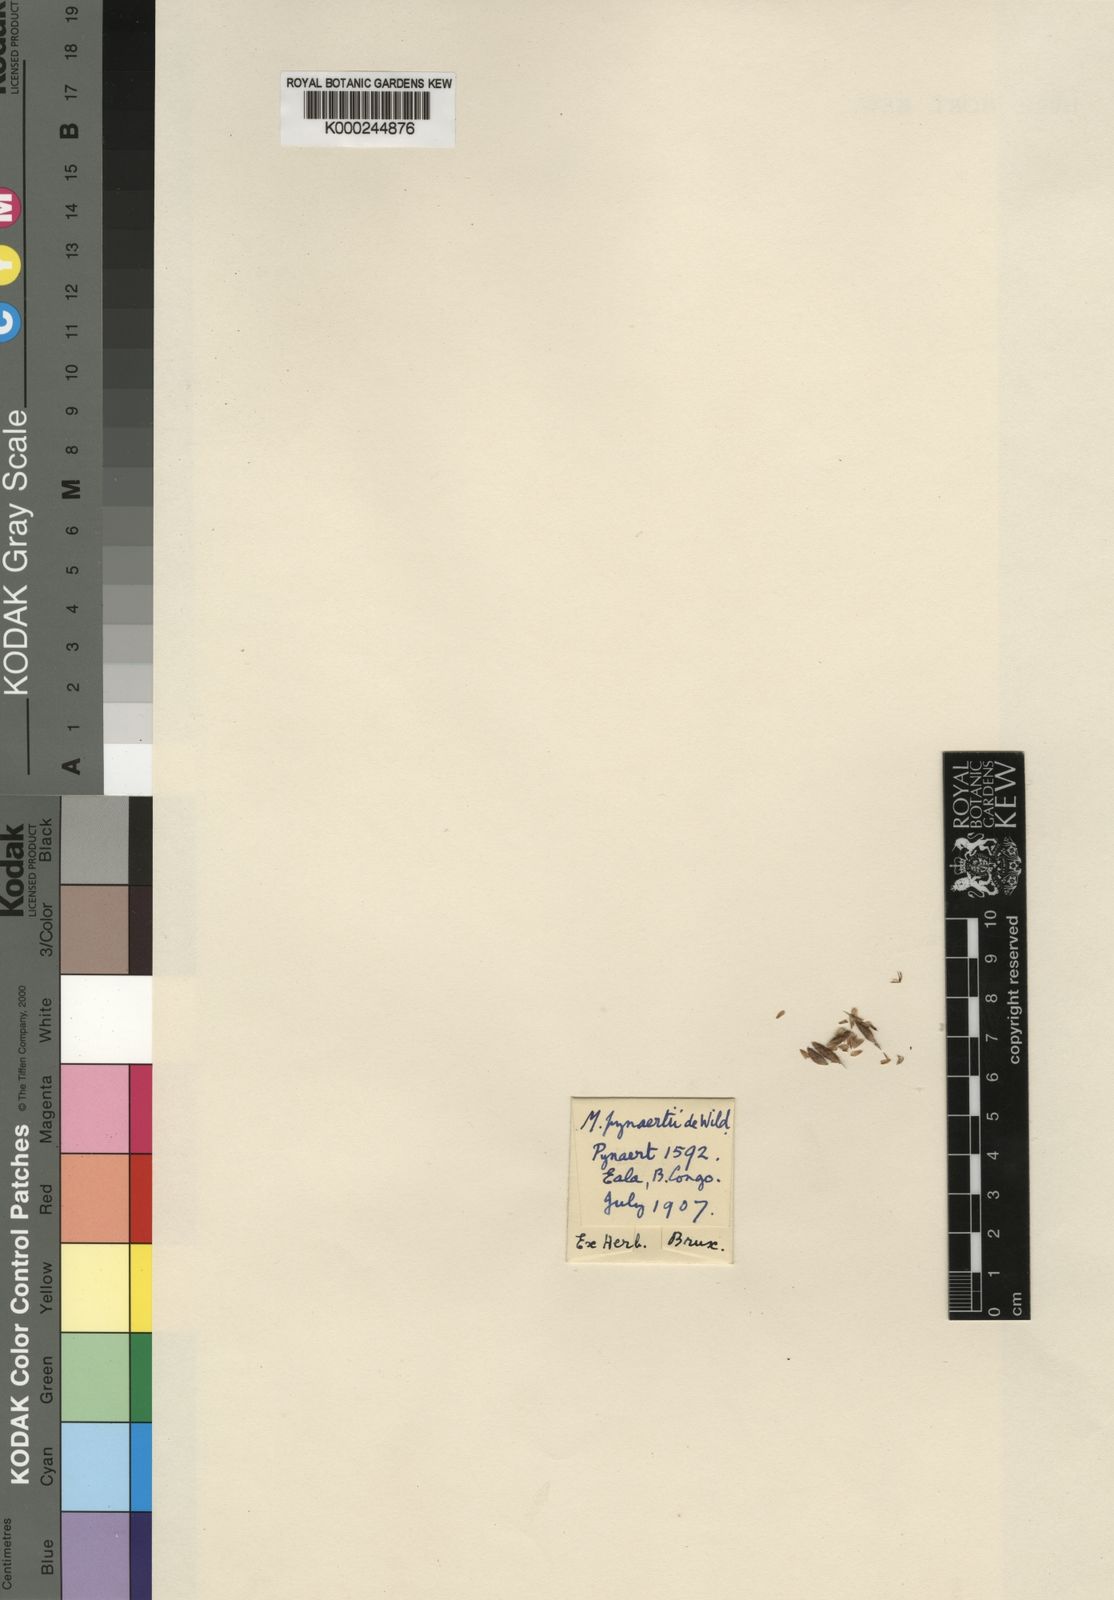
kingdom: Plantae
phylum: Tracheophyta
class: Liliopsida
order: Poales
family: Cyperaceae
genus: Hypolytrum
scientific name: Hypolytrum pynaertii
